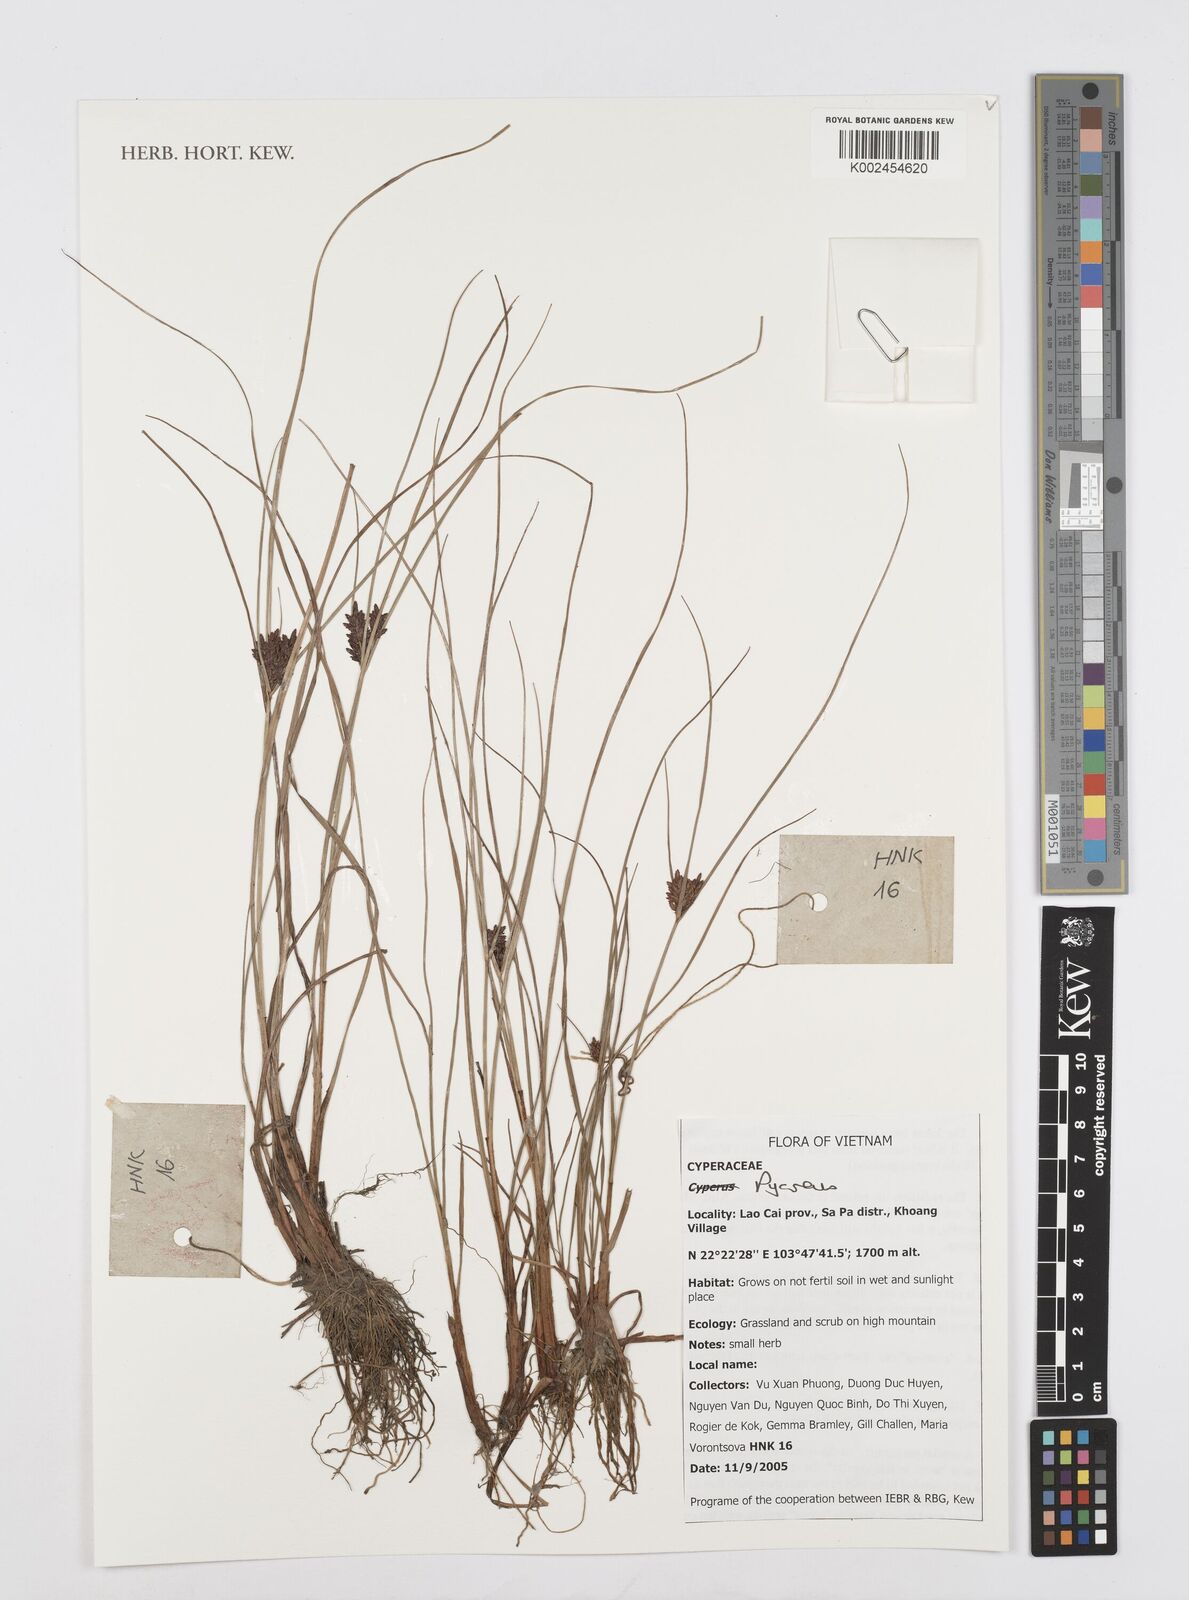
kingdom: Plantae
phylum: Tracheophyta
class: Liliopsida
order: Poales
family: Cyperaceae
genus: Cyperus
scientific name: Cyperus
